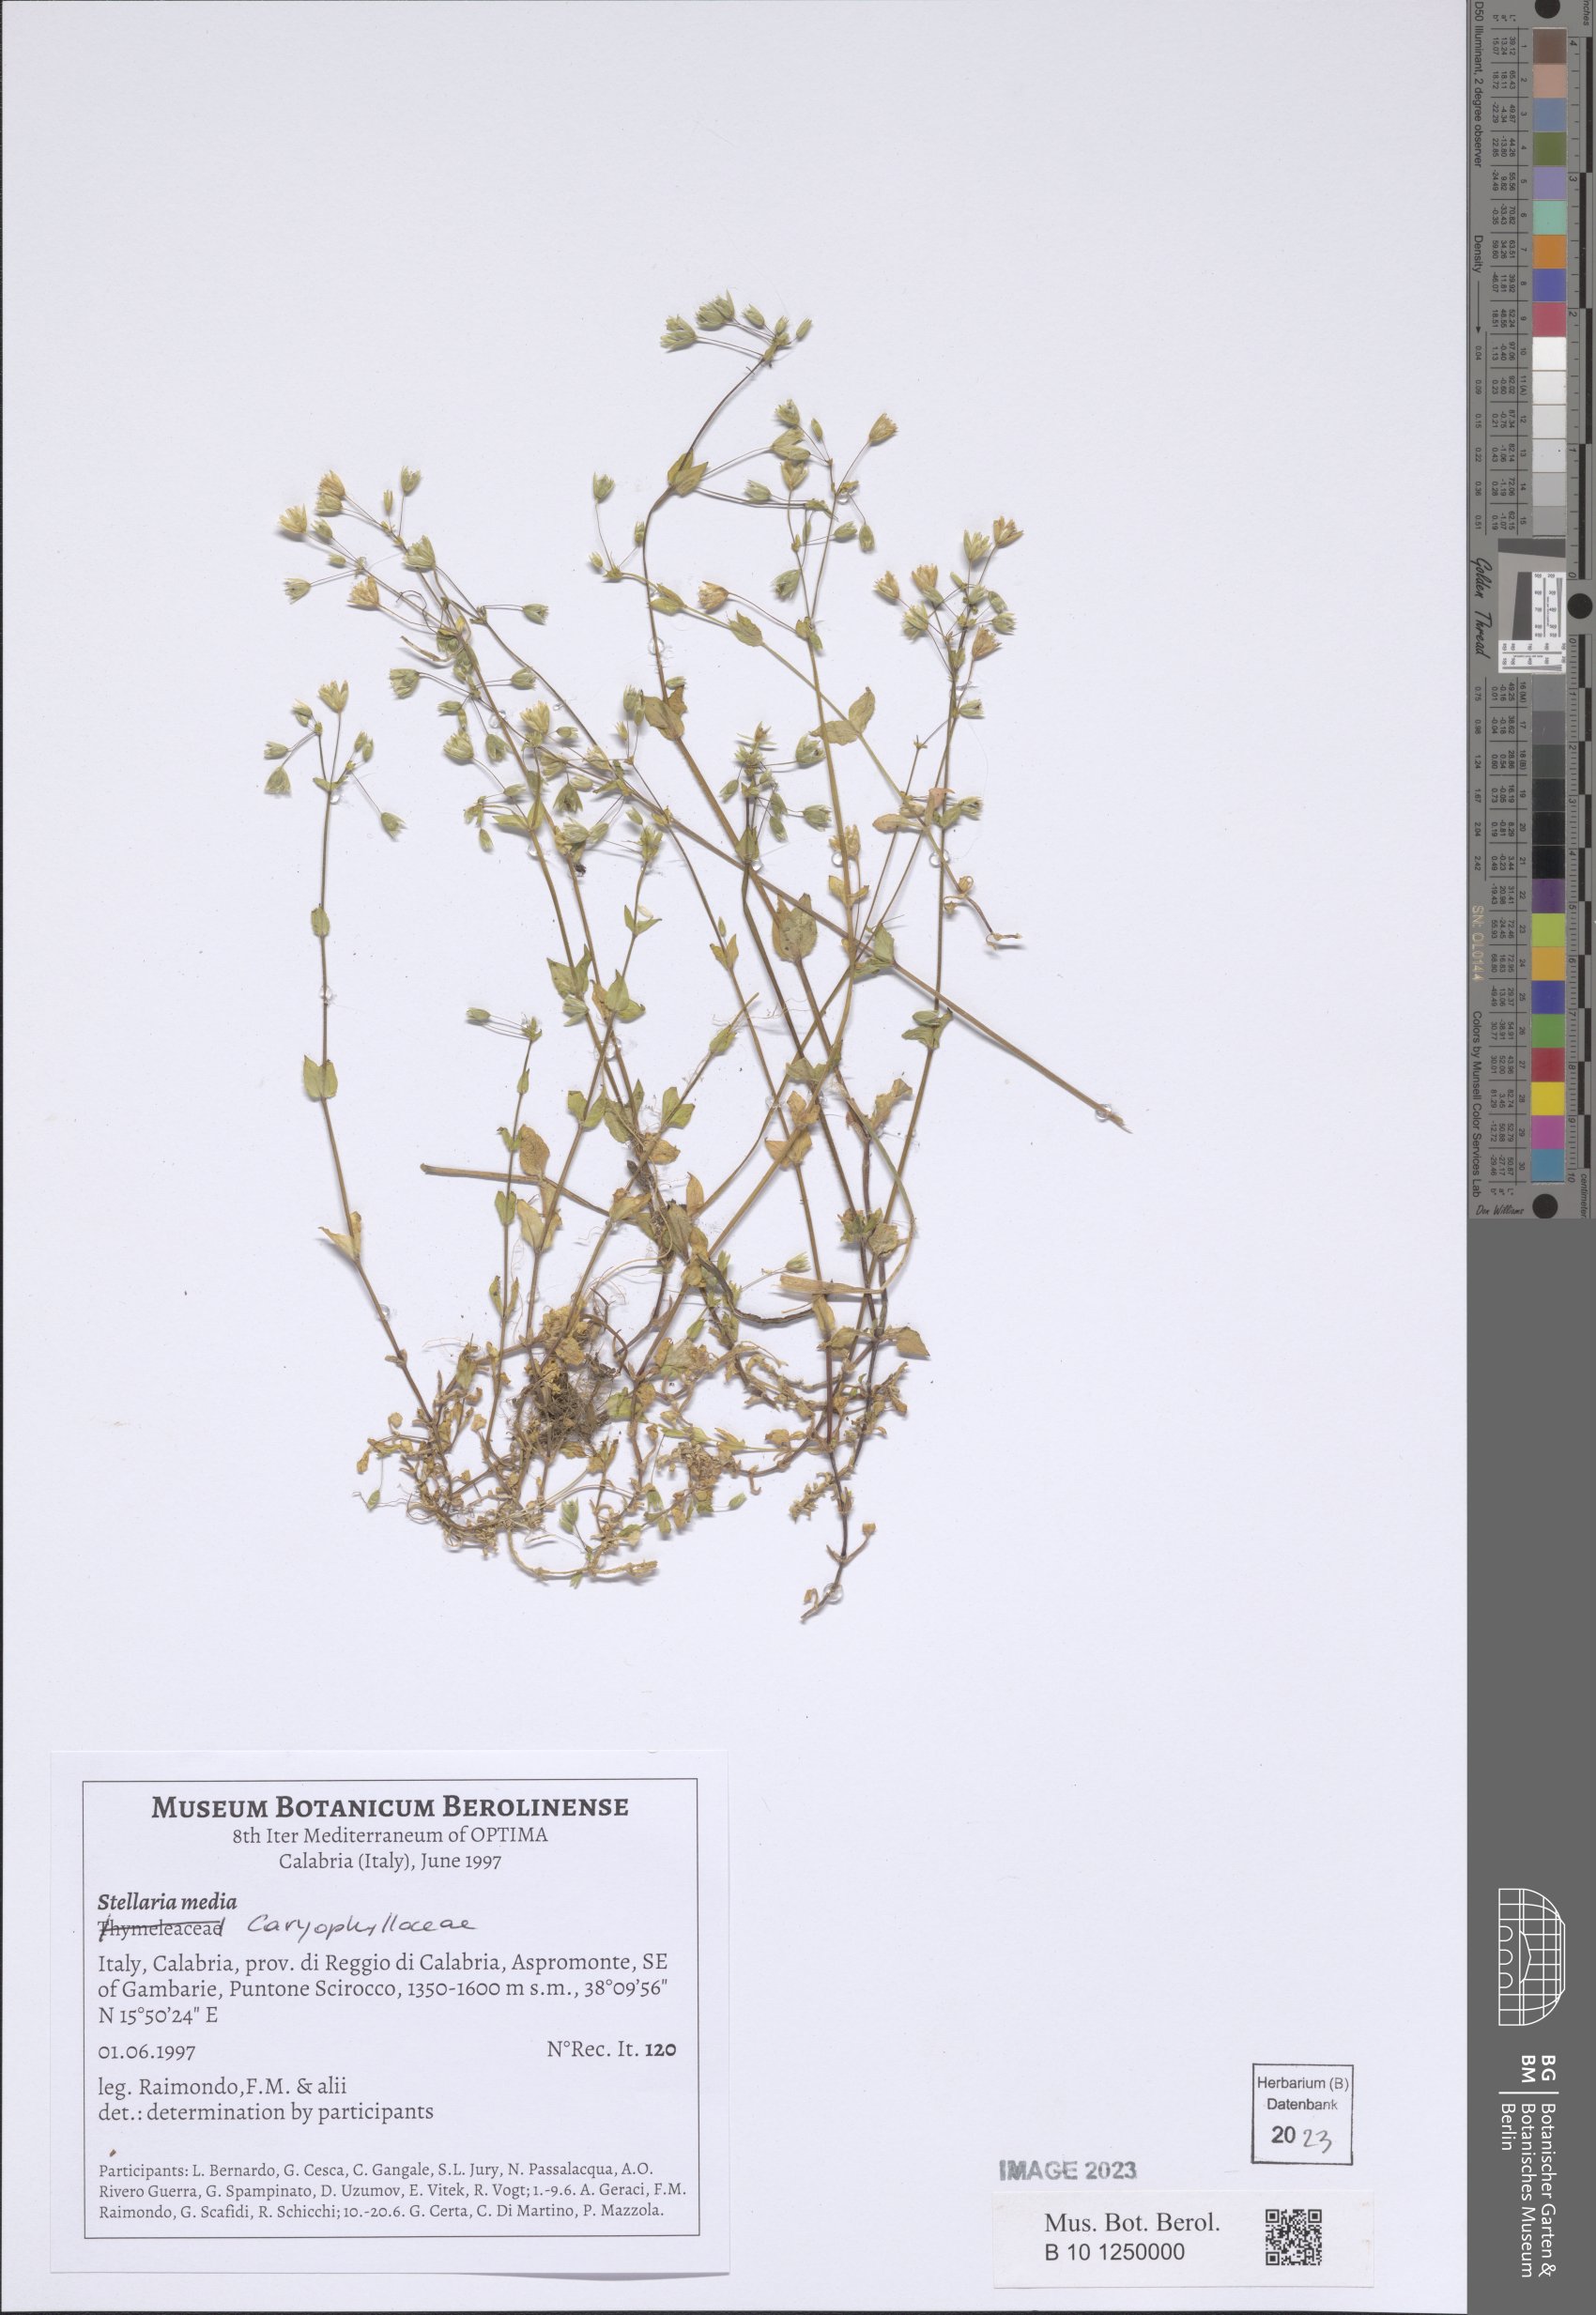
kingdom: Plantae
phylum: Tracheophyta
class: Magnoliopsida
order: Caryophyllales
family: Caryophyllaceae
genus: Stellaria
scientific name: Stellaria media
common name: Common chickweed
